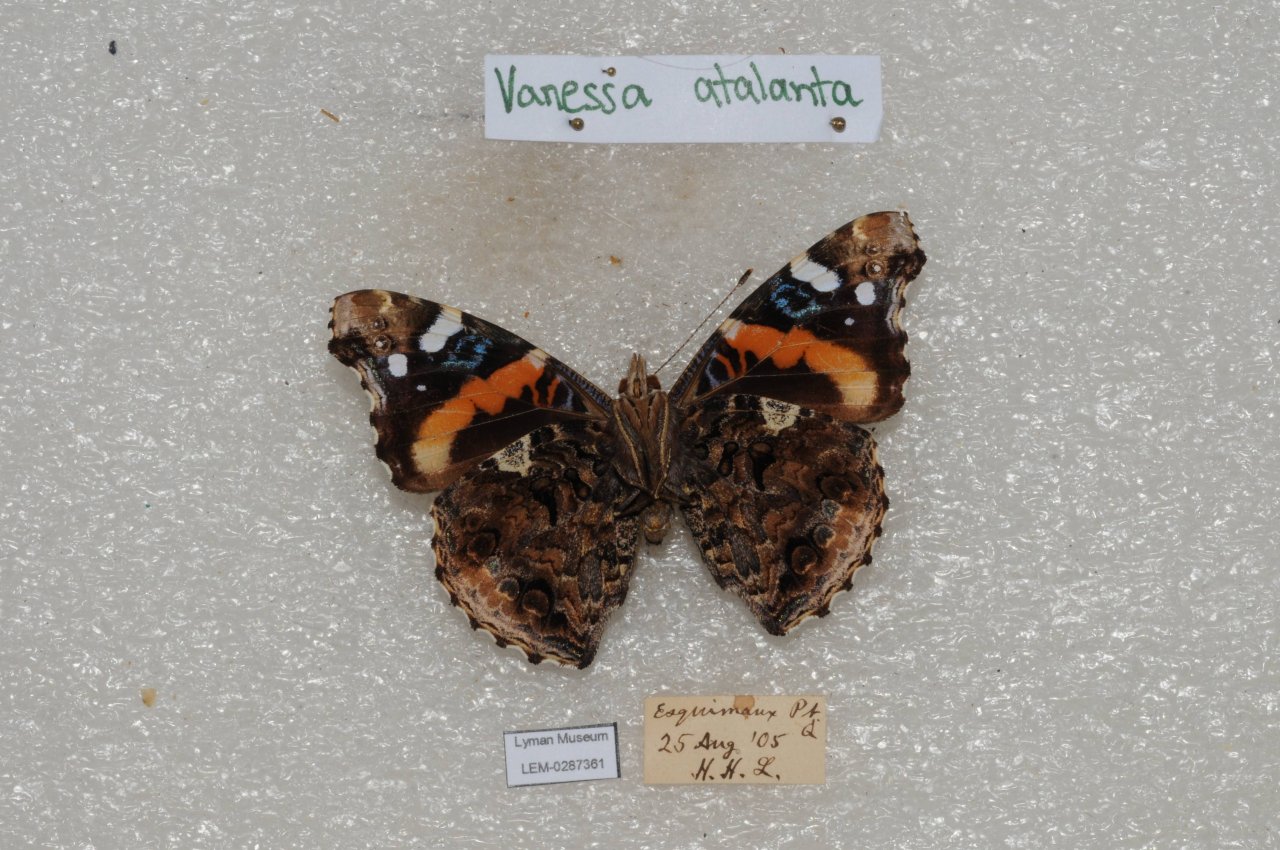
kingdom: Animalia
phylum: Arthropoda
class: Insecta
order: Lepidoptera
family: Nymphalidae
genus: Vanessa
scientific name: Vanessa atalanta
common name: Red Admiral
